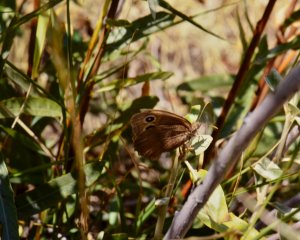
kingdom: Animalia
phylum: Arthropoda
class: Insecta
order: Lepidoptera
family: Nymphalidae
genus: Cercyonis
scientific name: Cercyonis pegala
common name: Common Wood-Nymph
